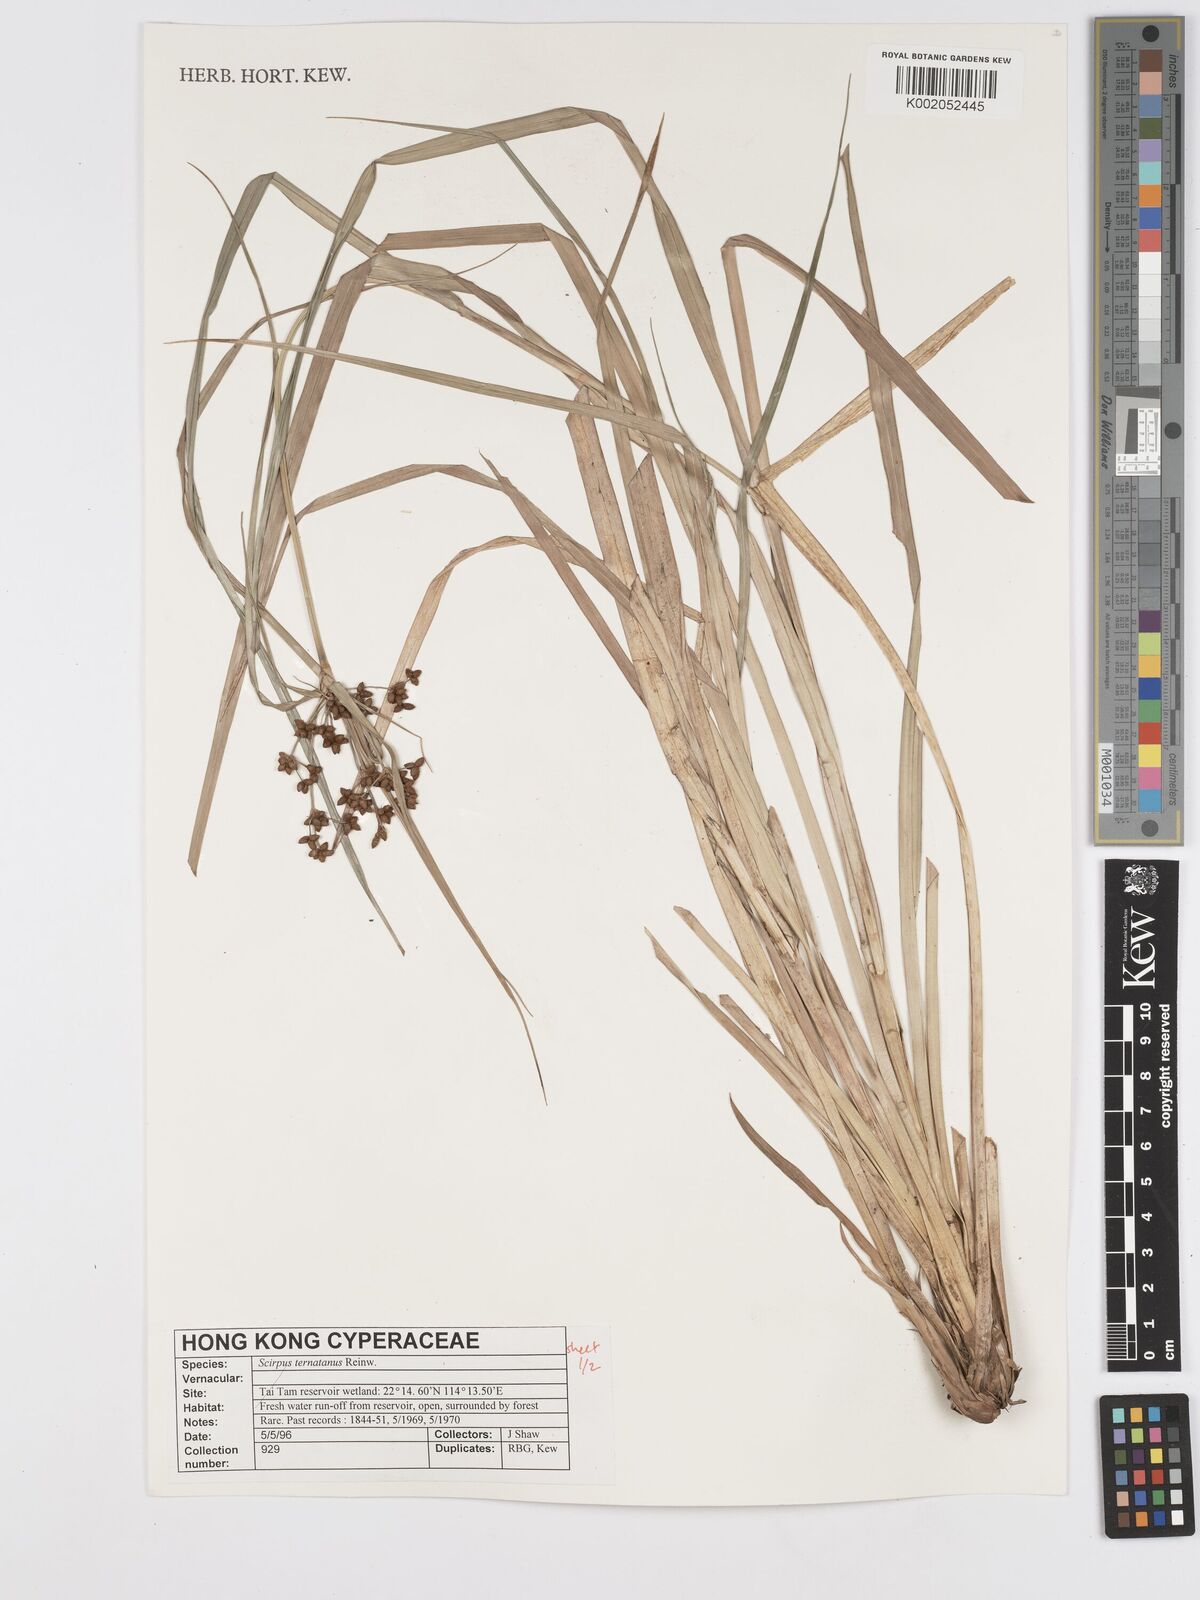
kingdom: Plantae
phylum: Tracheophyta
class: Liliopsida
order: Poales
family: Cyperaceae
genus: Scirpus
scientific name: Scirpus ternatanus
